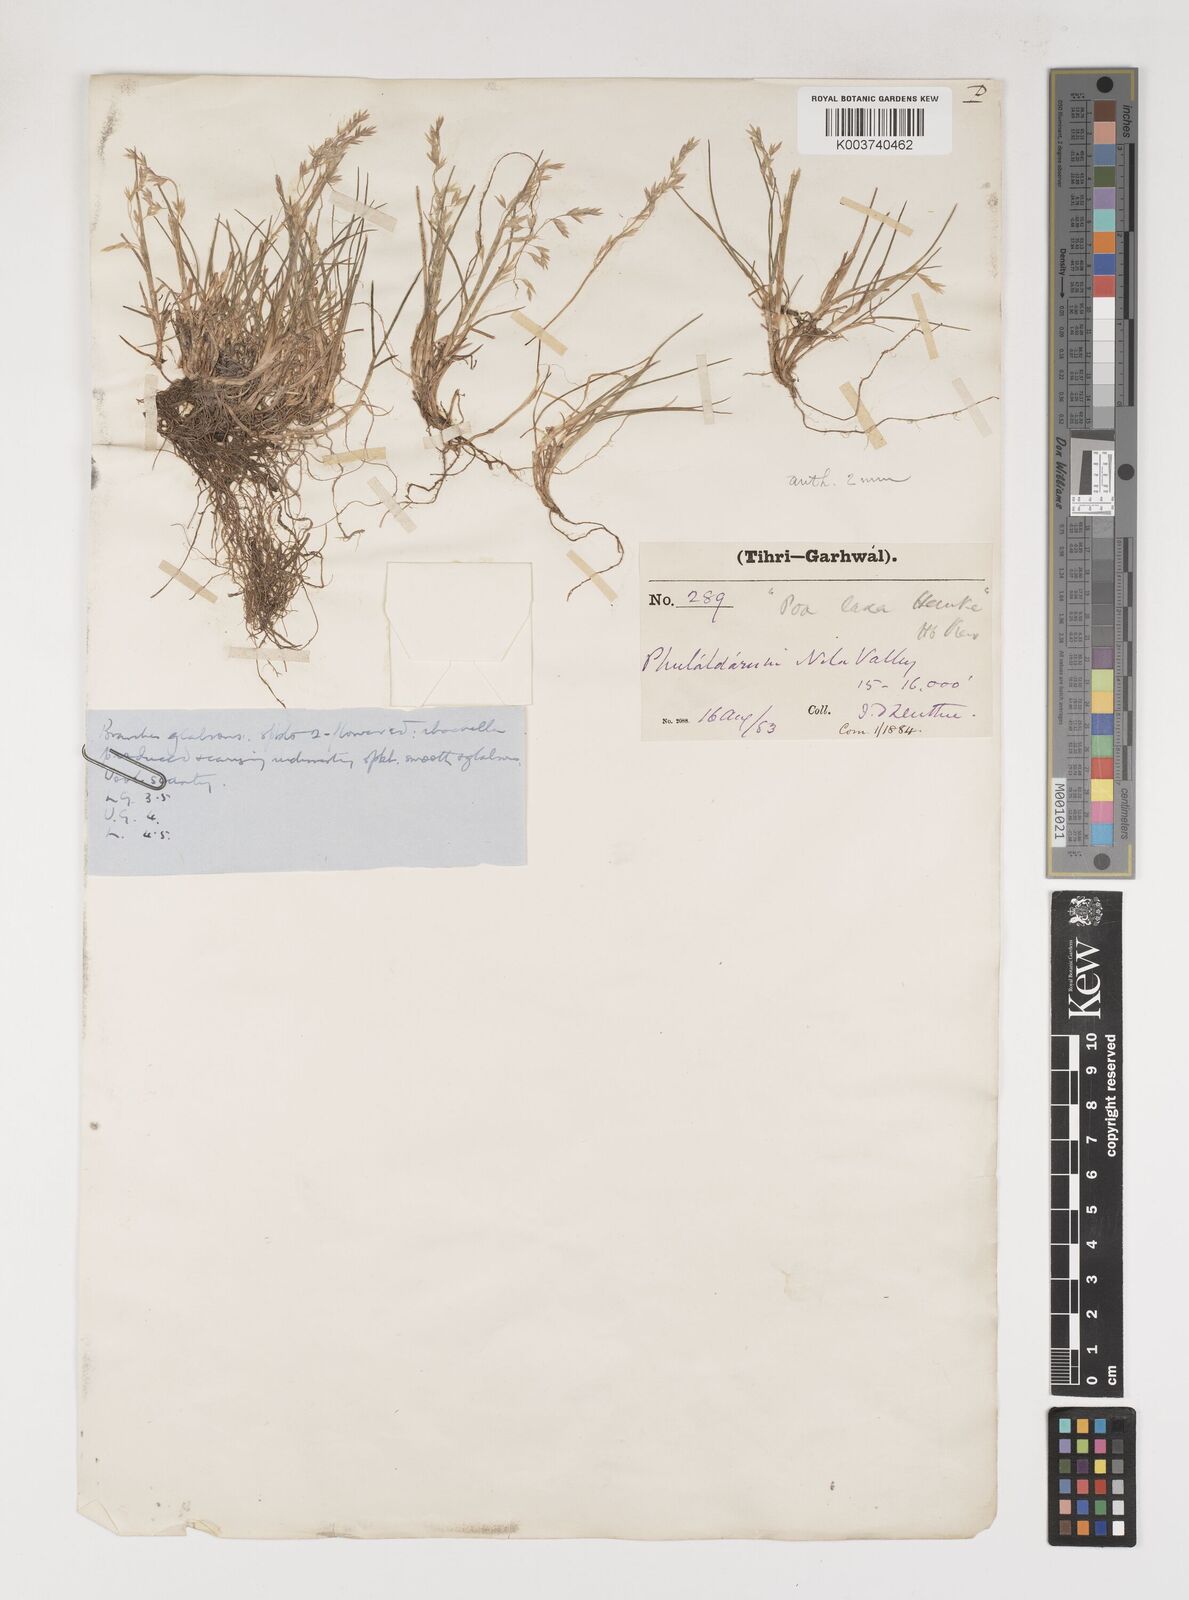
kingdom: Plantae
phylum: Tracheophyta
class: Liliopsida
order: Poales
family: Poaceae
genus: Poa
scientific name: Poa polycolea
